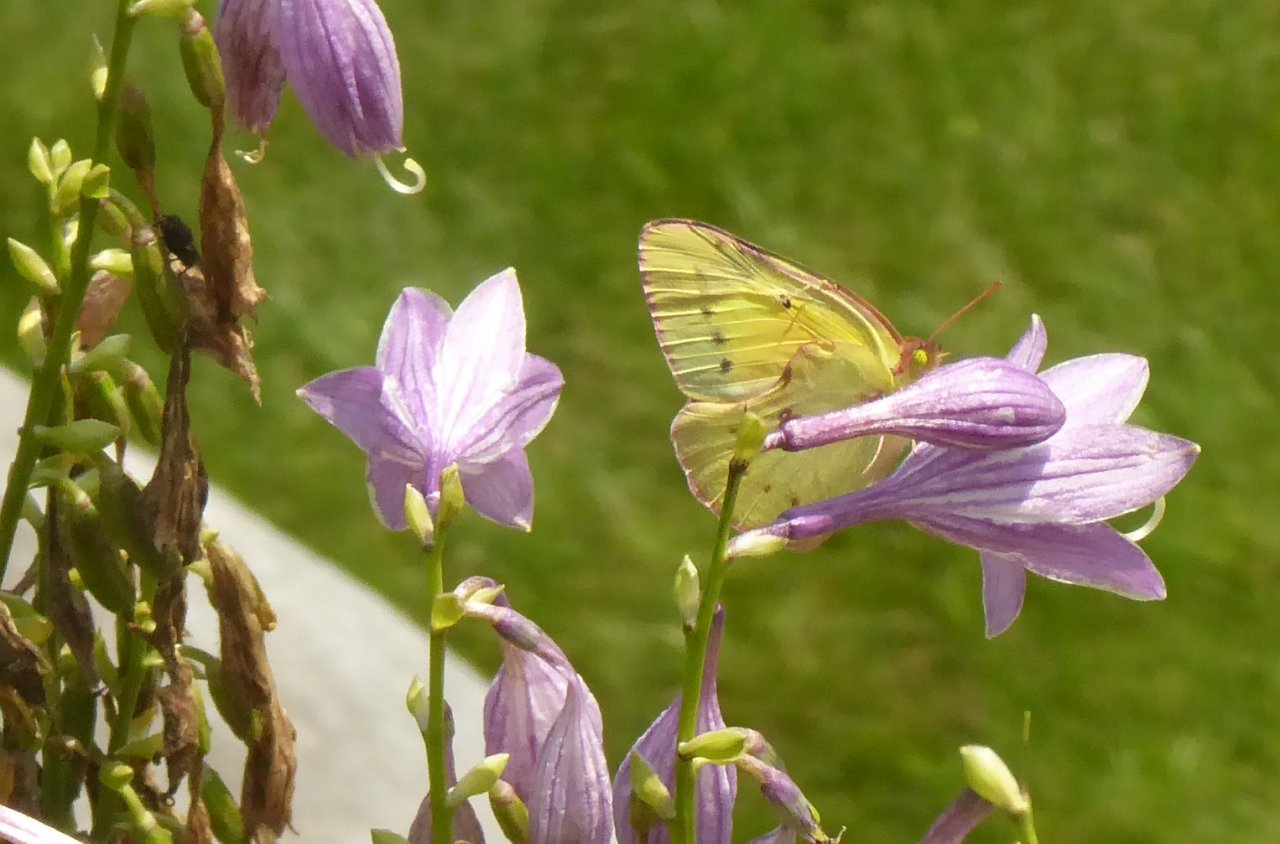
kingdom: Animalia
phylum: Arthropoda
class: Insecta
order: Lepidoptera
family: Pieridae
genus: Colias
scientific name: Colias philodice
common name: Clouded Sulphur
